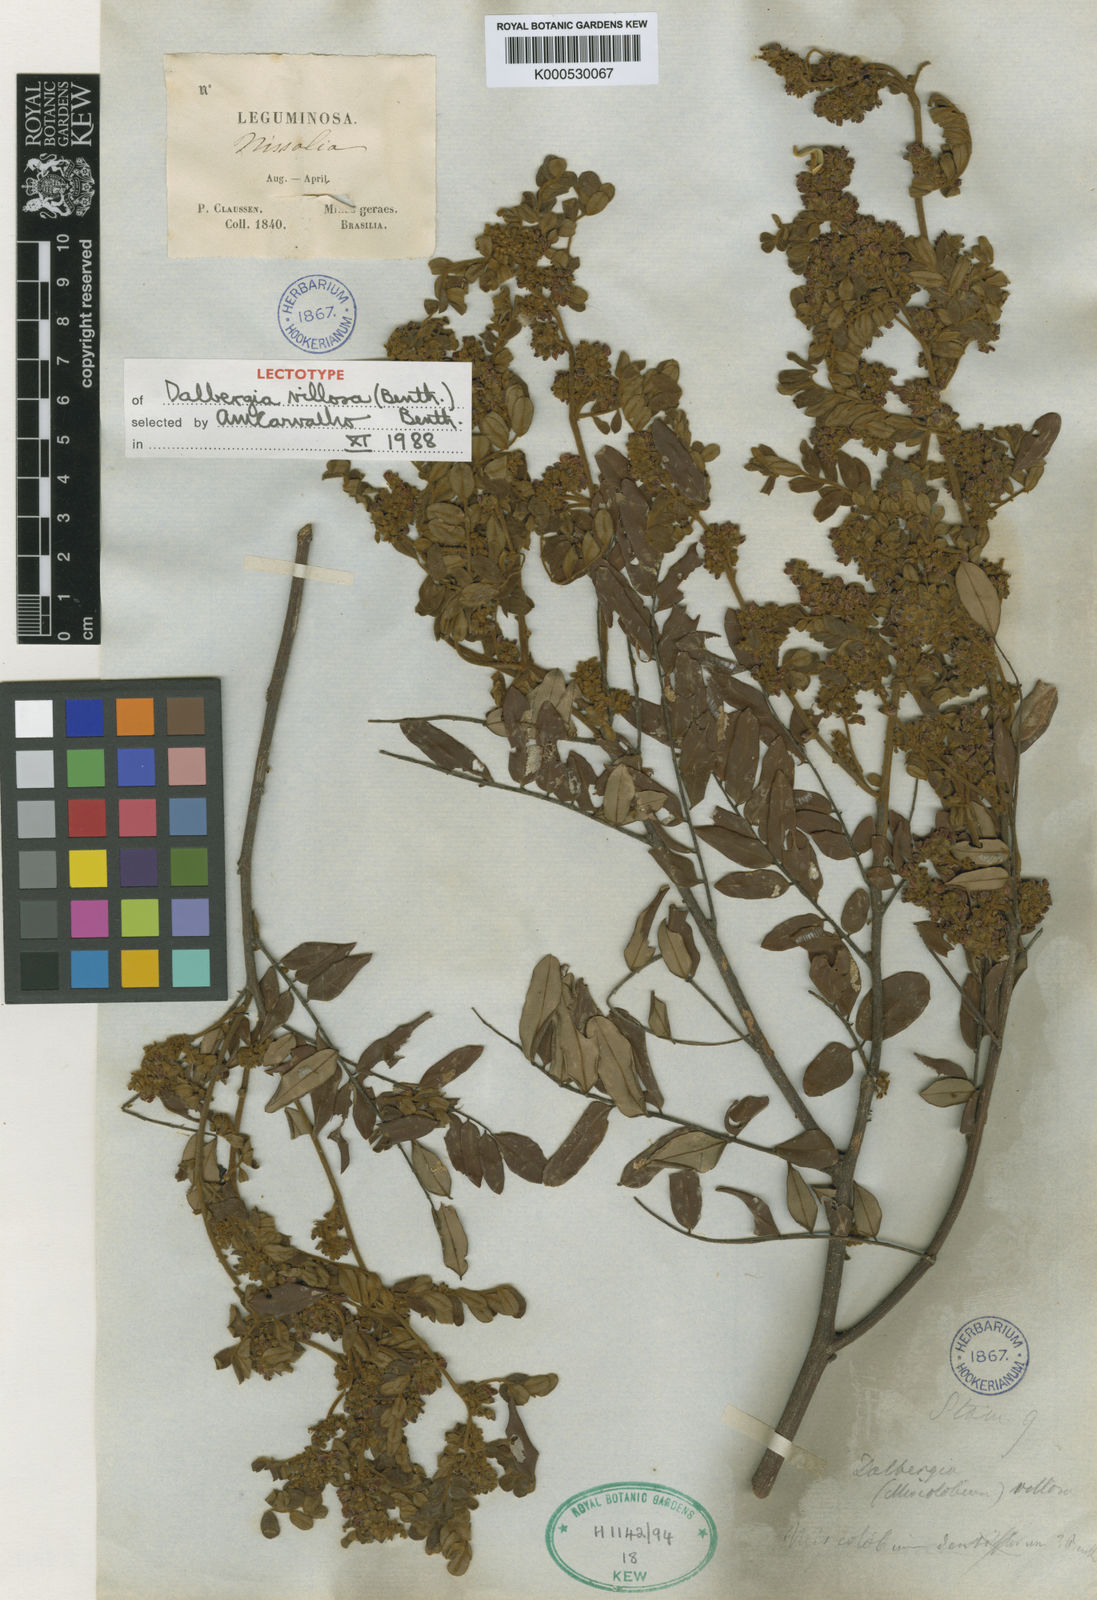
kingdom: Plantae
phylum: Tracheophyta
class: Magnoliopsida
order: Fabales
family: Fabaceae
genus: Dalbergia
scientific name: Dalbergia villosa
